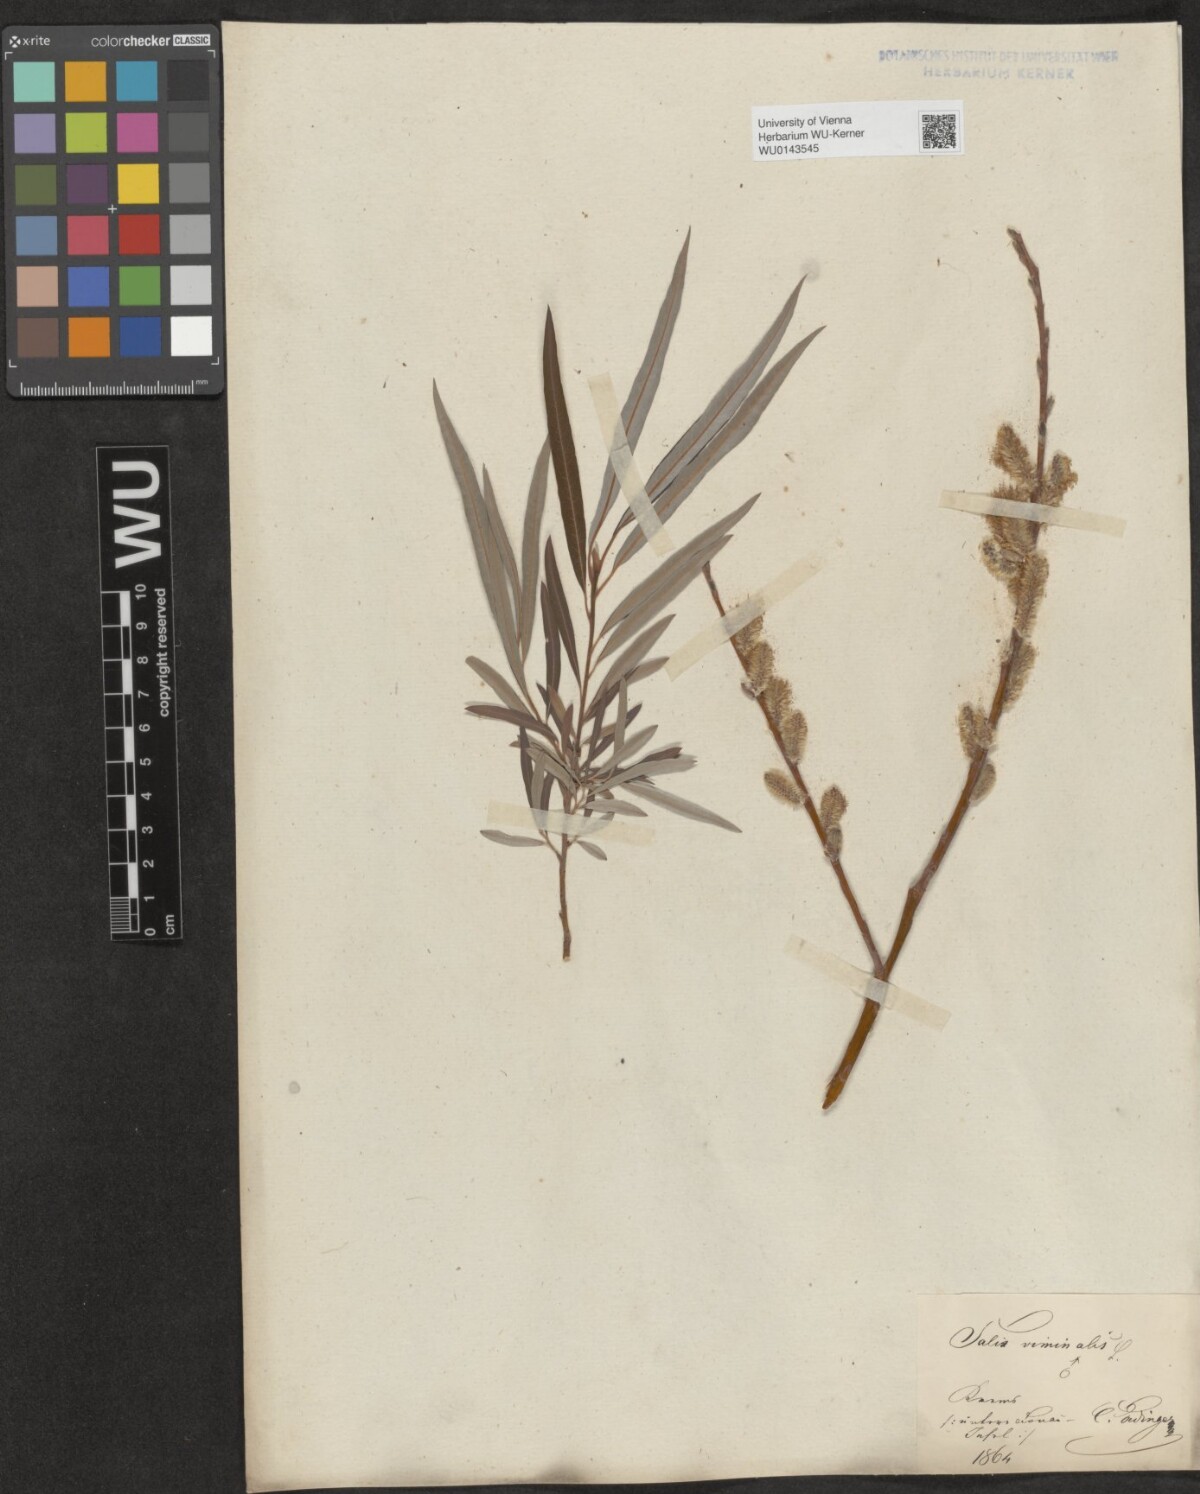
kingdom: Plantae
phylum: Tracheophyta
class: Magnoliopsida
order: Malpighiales
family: Salicaceae
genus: Salix
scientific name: Salix viminalis
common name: Osier
